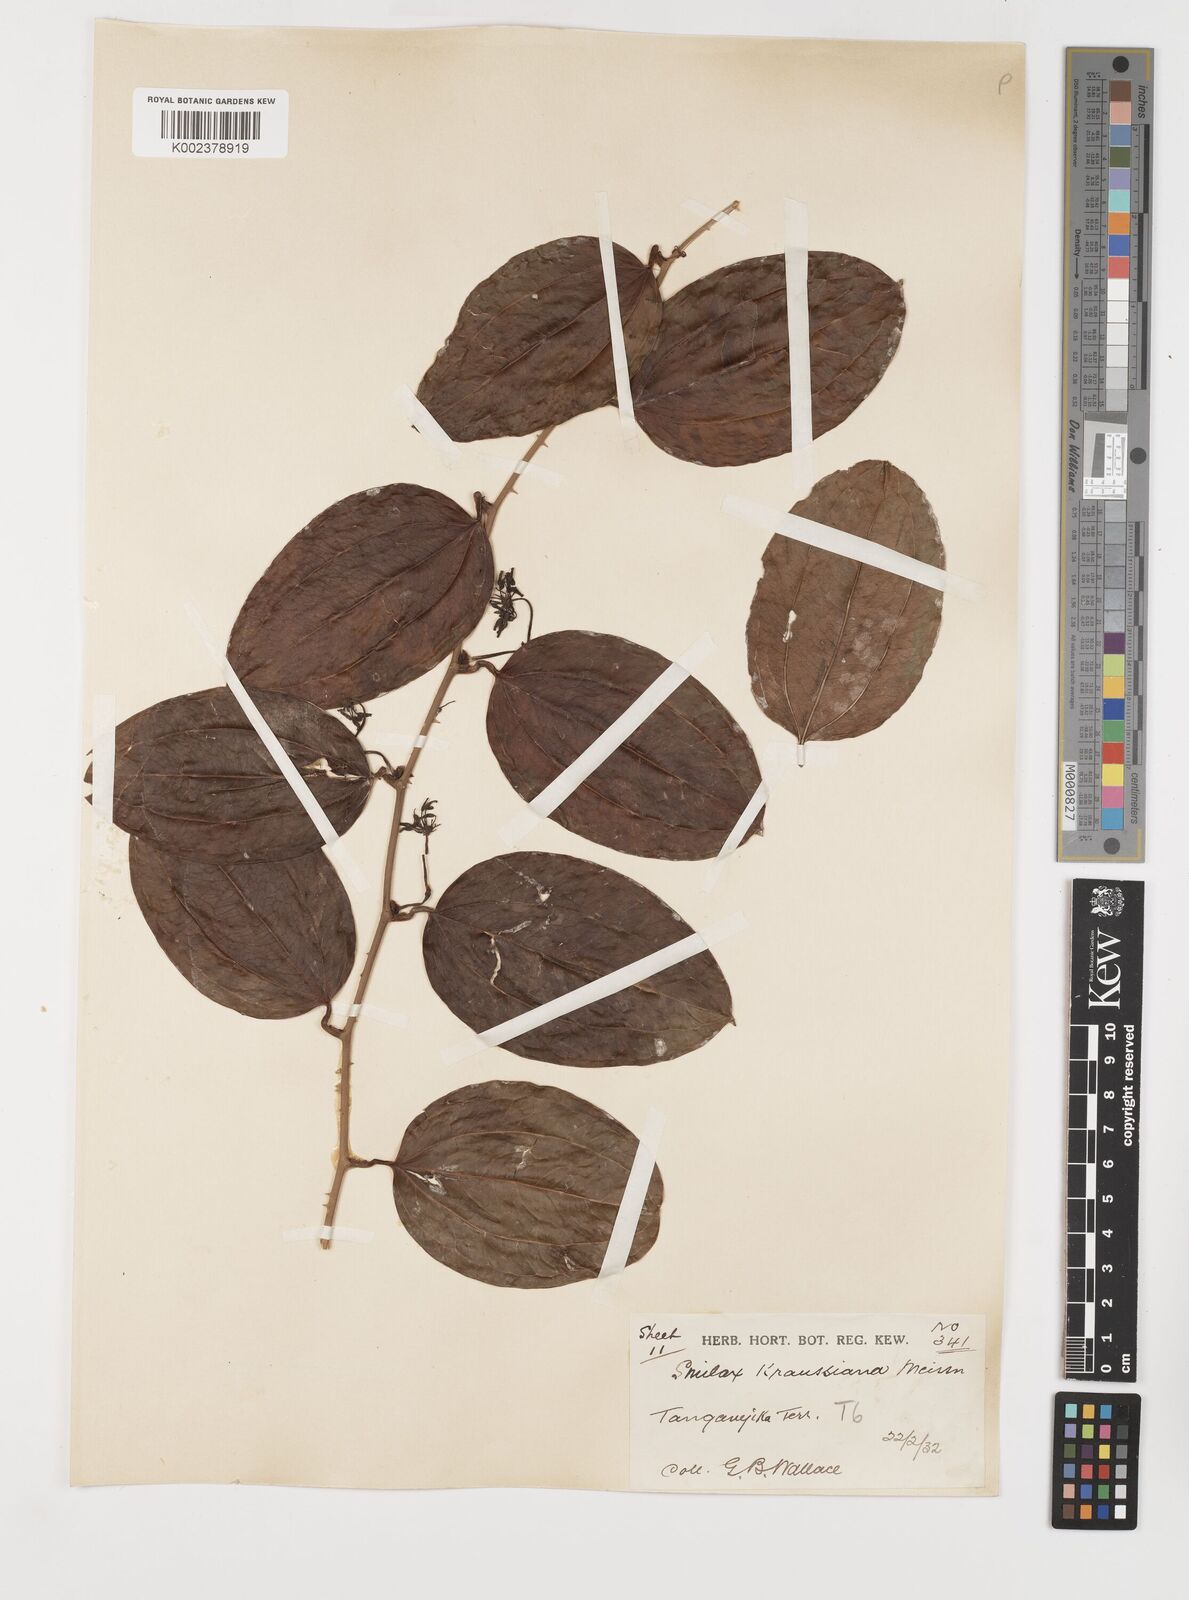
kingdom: Plantae
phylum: Tracheophyta
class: Liliopsida
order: Liliales
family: Smilacaceae
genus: Smilax
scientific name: Smilax anceps
